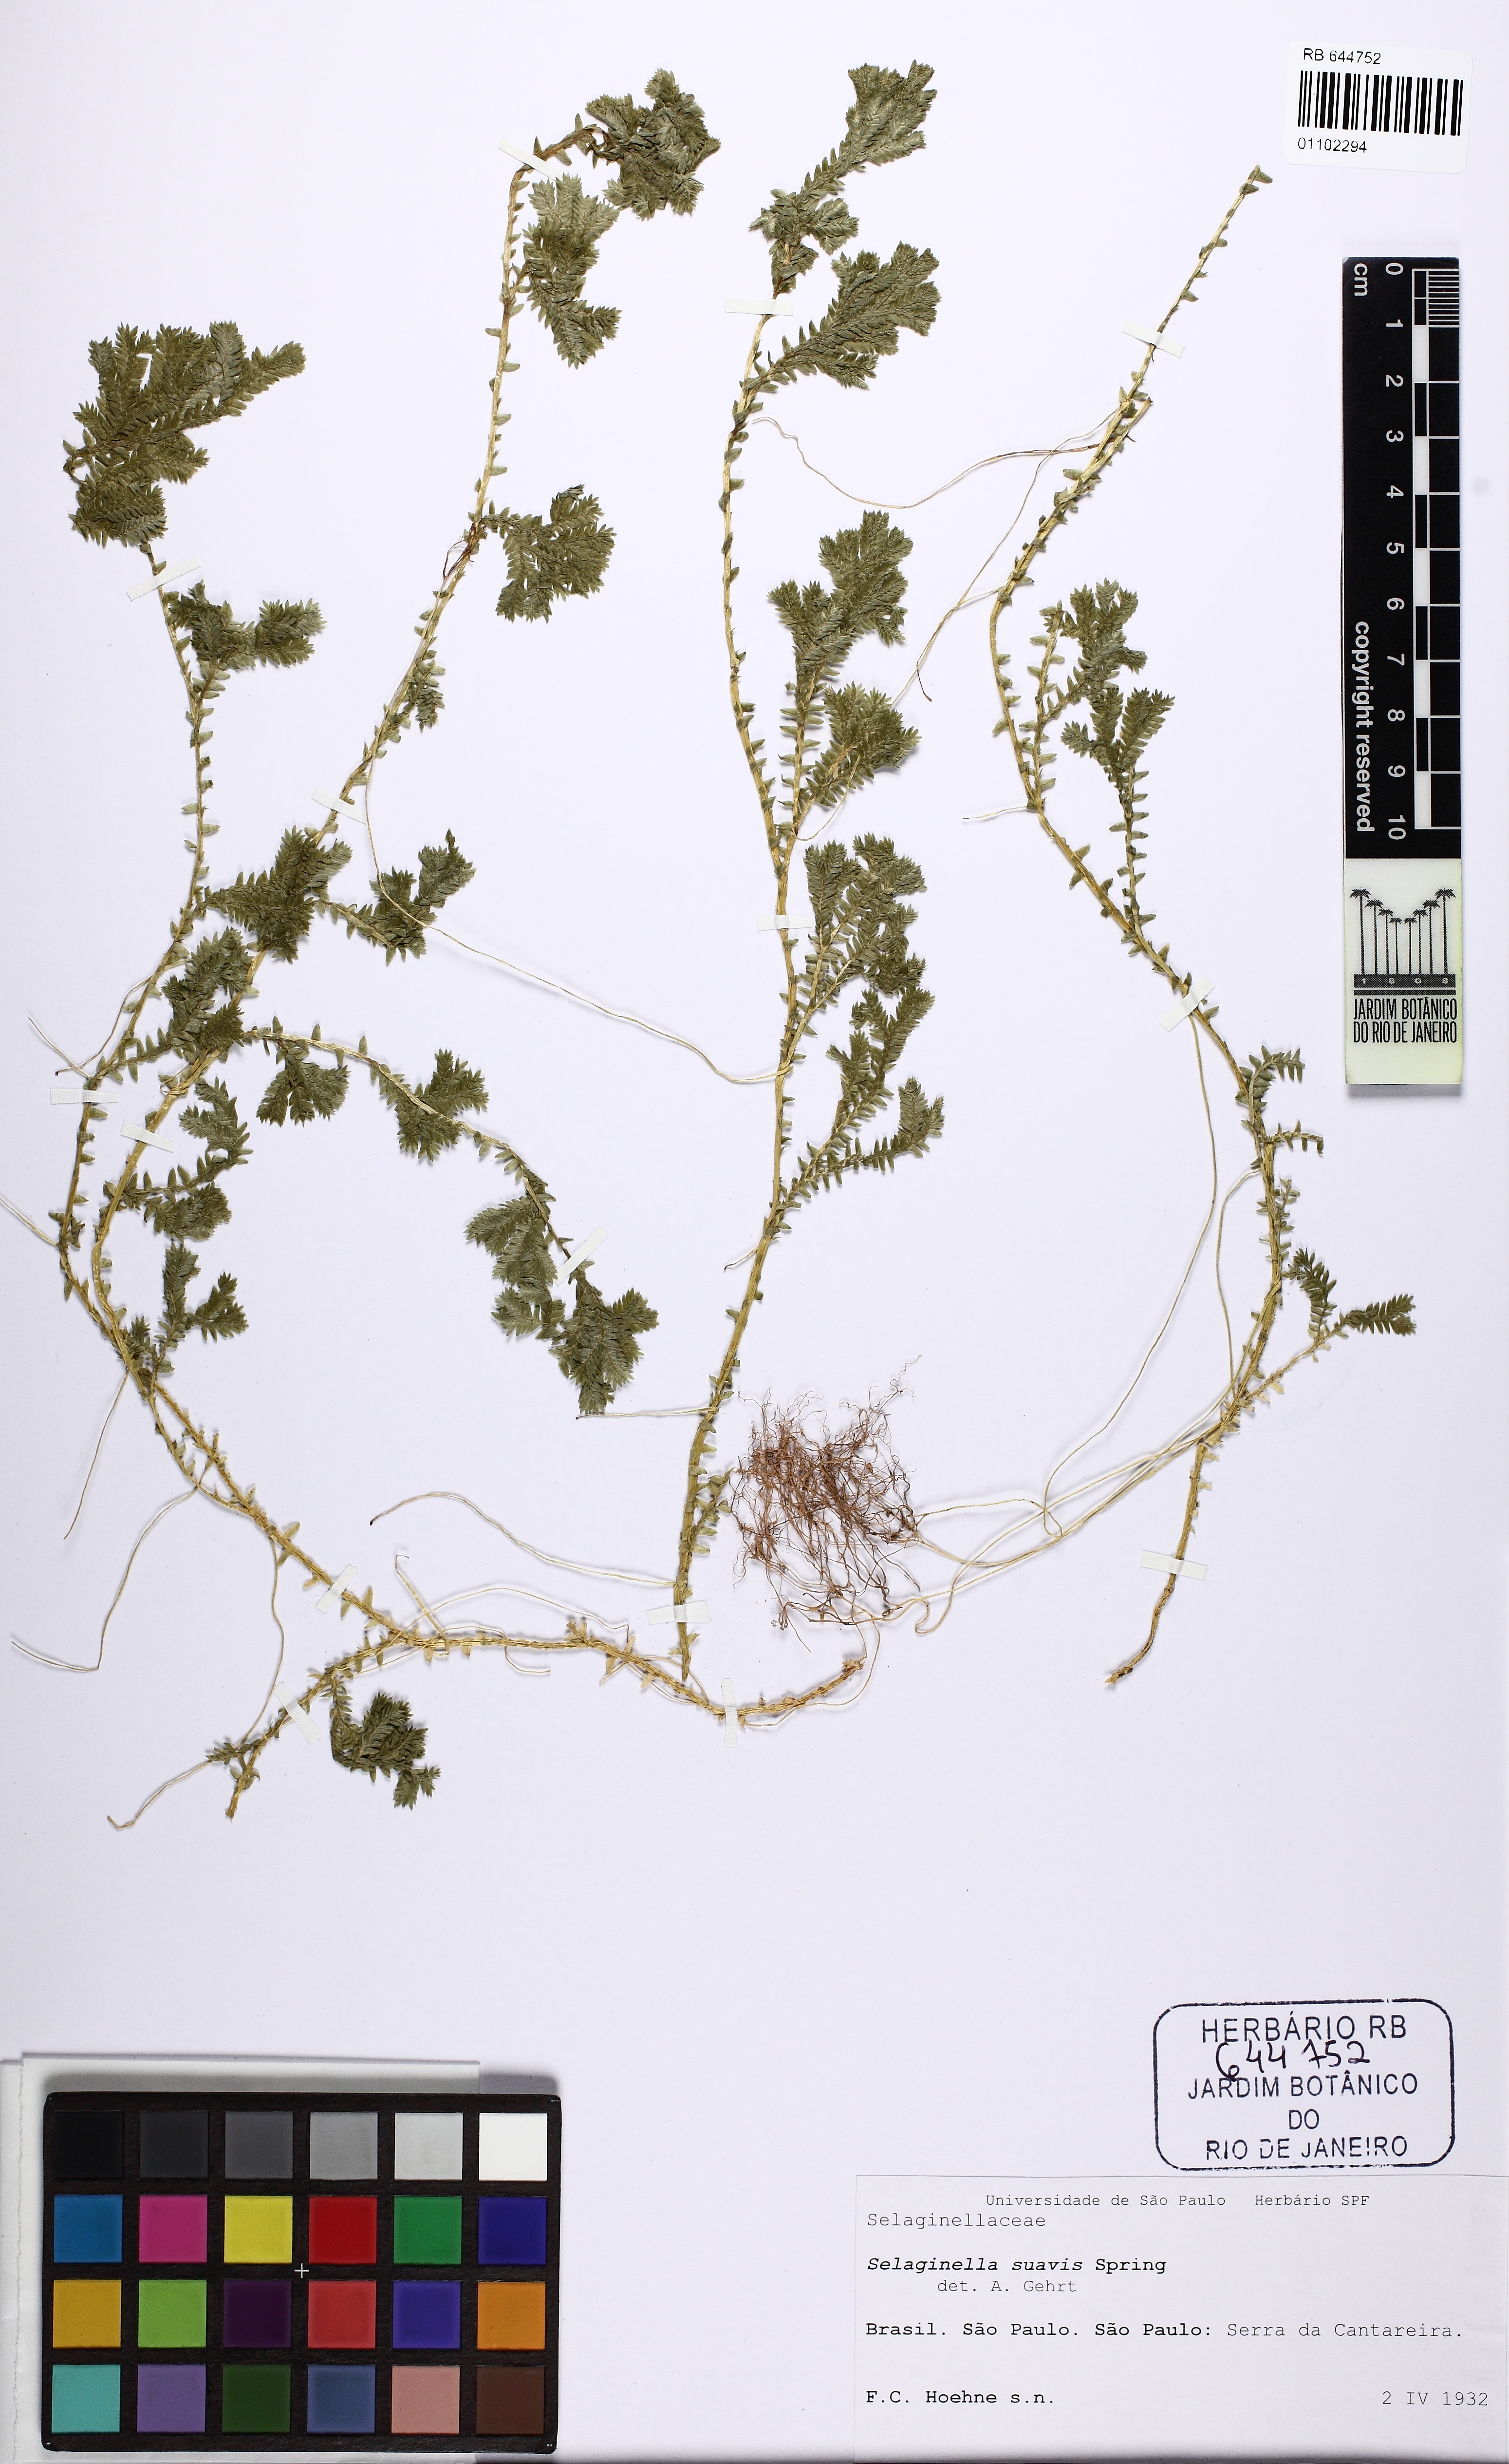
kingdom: Plantae
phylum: Tracheophyta
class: Lycopodiopsida
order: Selaginellales
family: Selaginellaceae
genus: Selaginella
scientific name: Selaginella suavis
